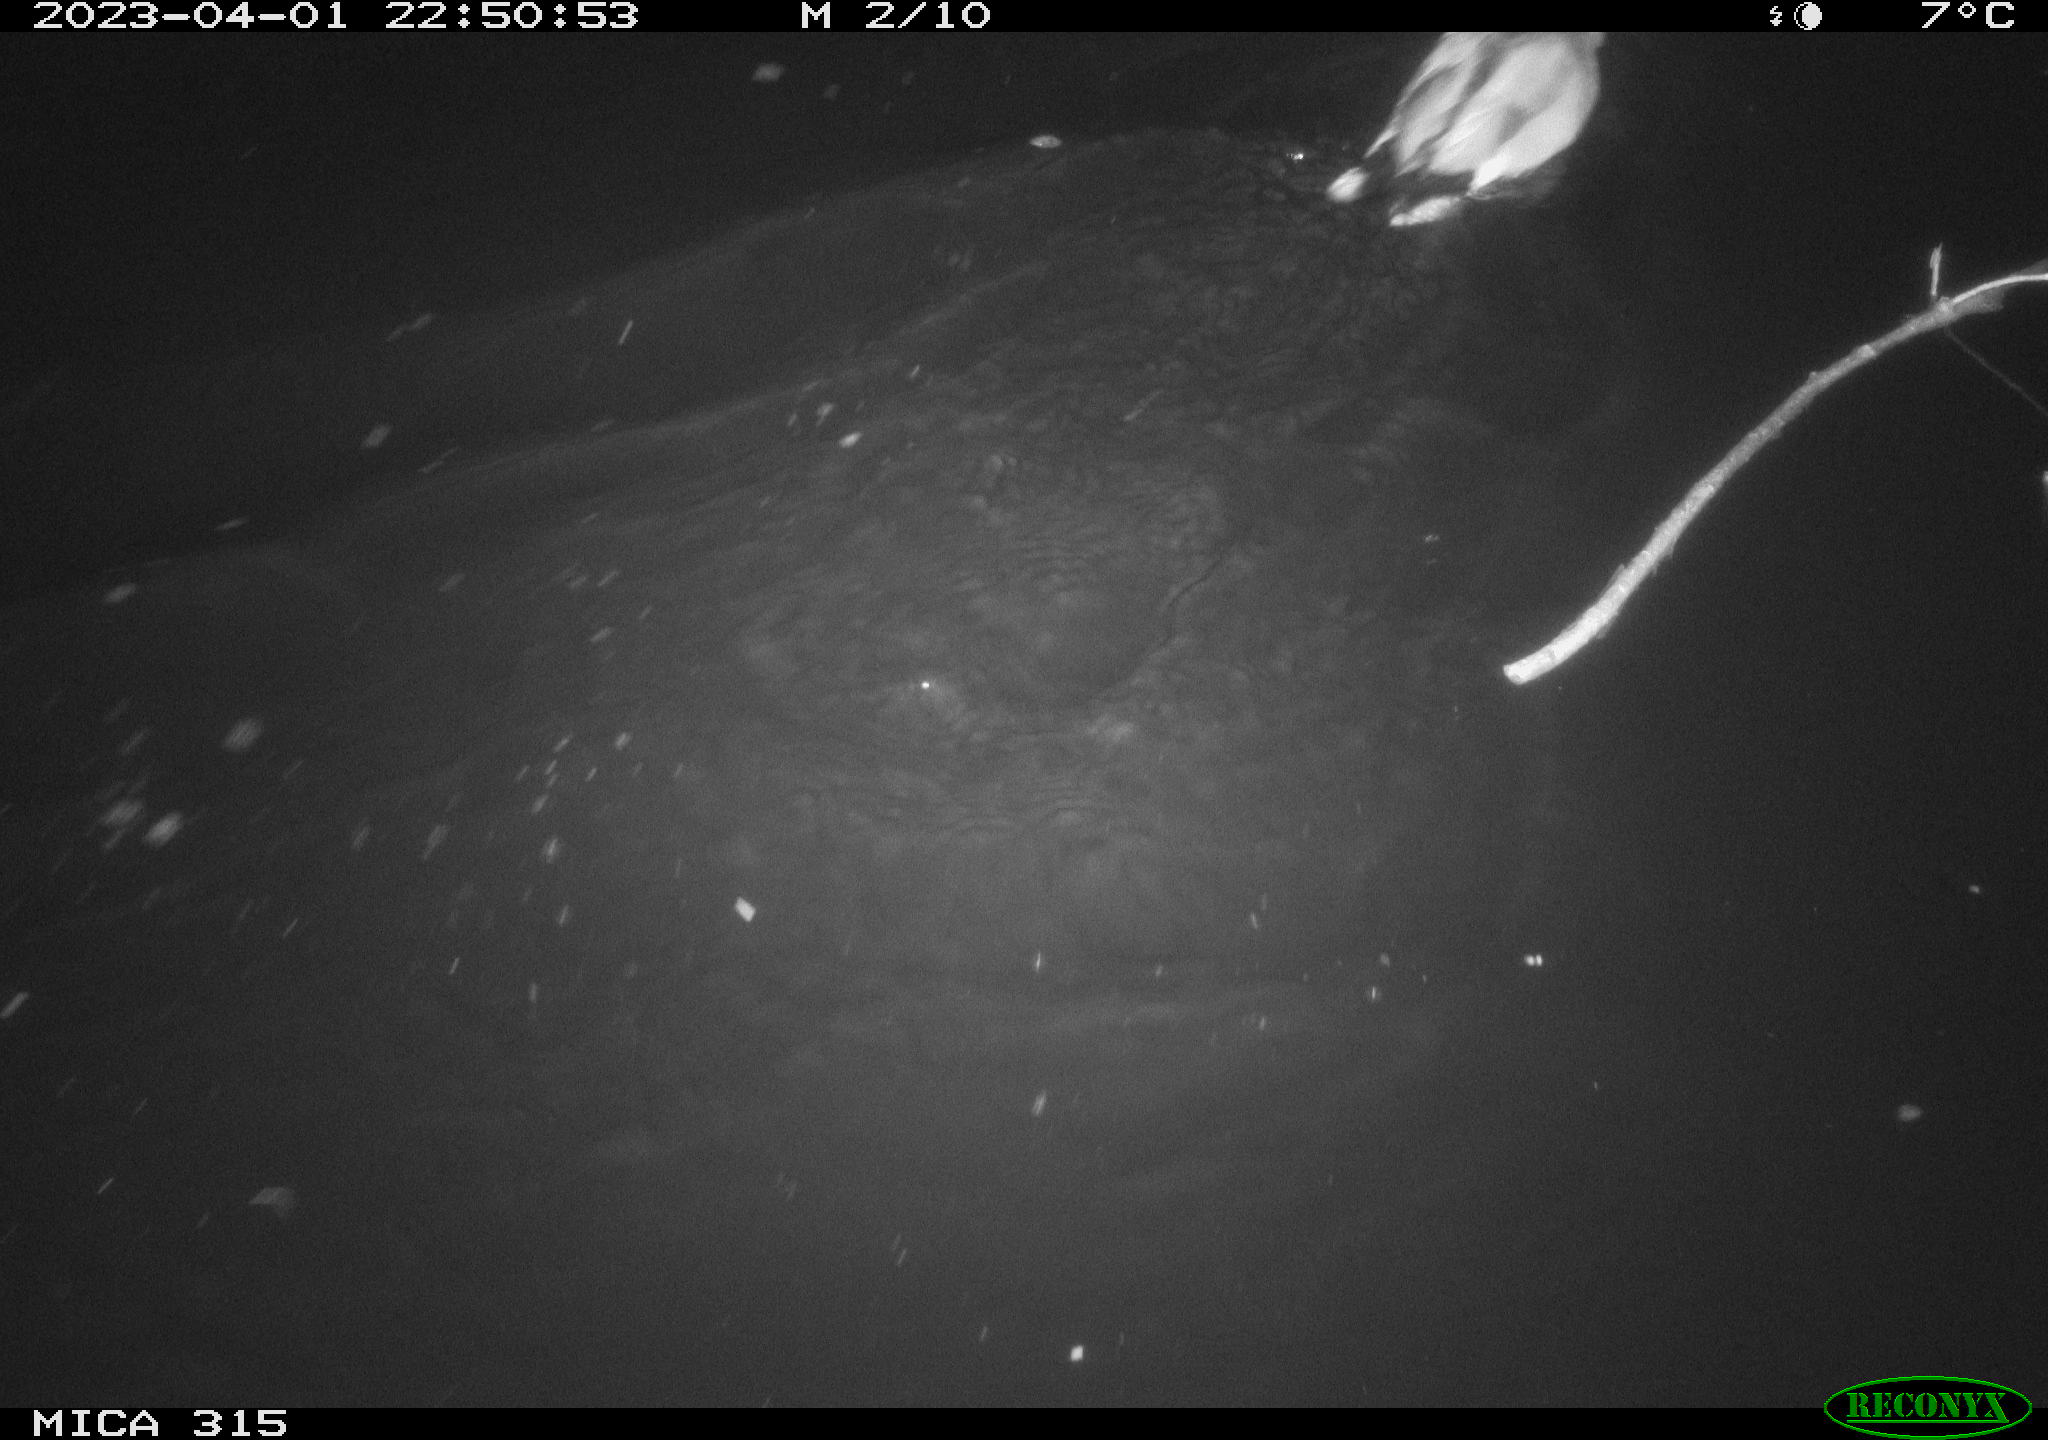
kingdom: Animalia
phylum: Chordata
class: Aves
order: Anseriformes
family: Anatidae
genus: Anas
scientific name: Anas
